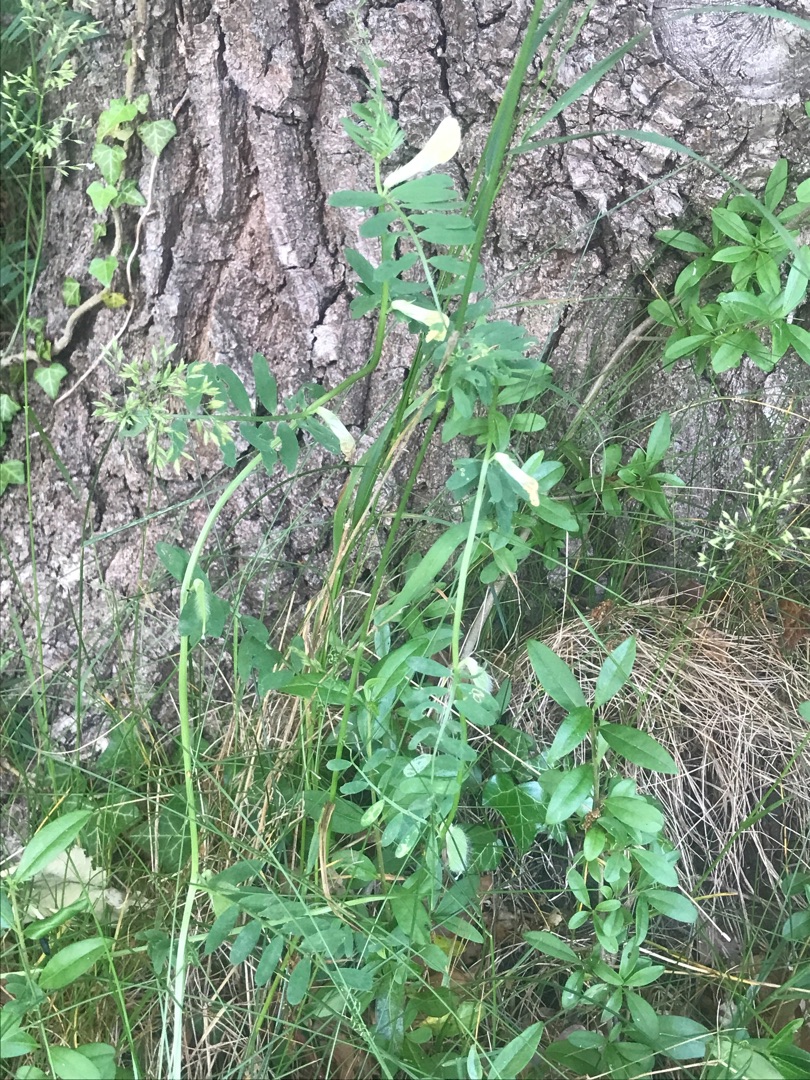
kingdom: Plantae
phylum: Tracheophyta
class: Magnoliopsida
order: Fabales
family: Fabaceae
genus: Vicia
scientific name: Vicia grandiflora
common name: Storblomstret vikke
